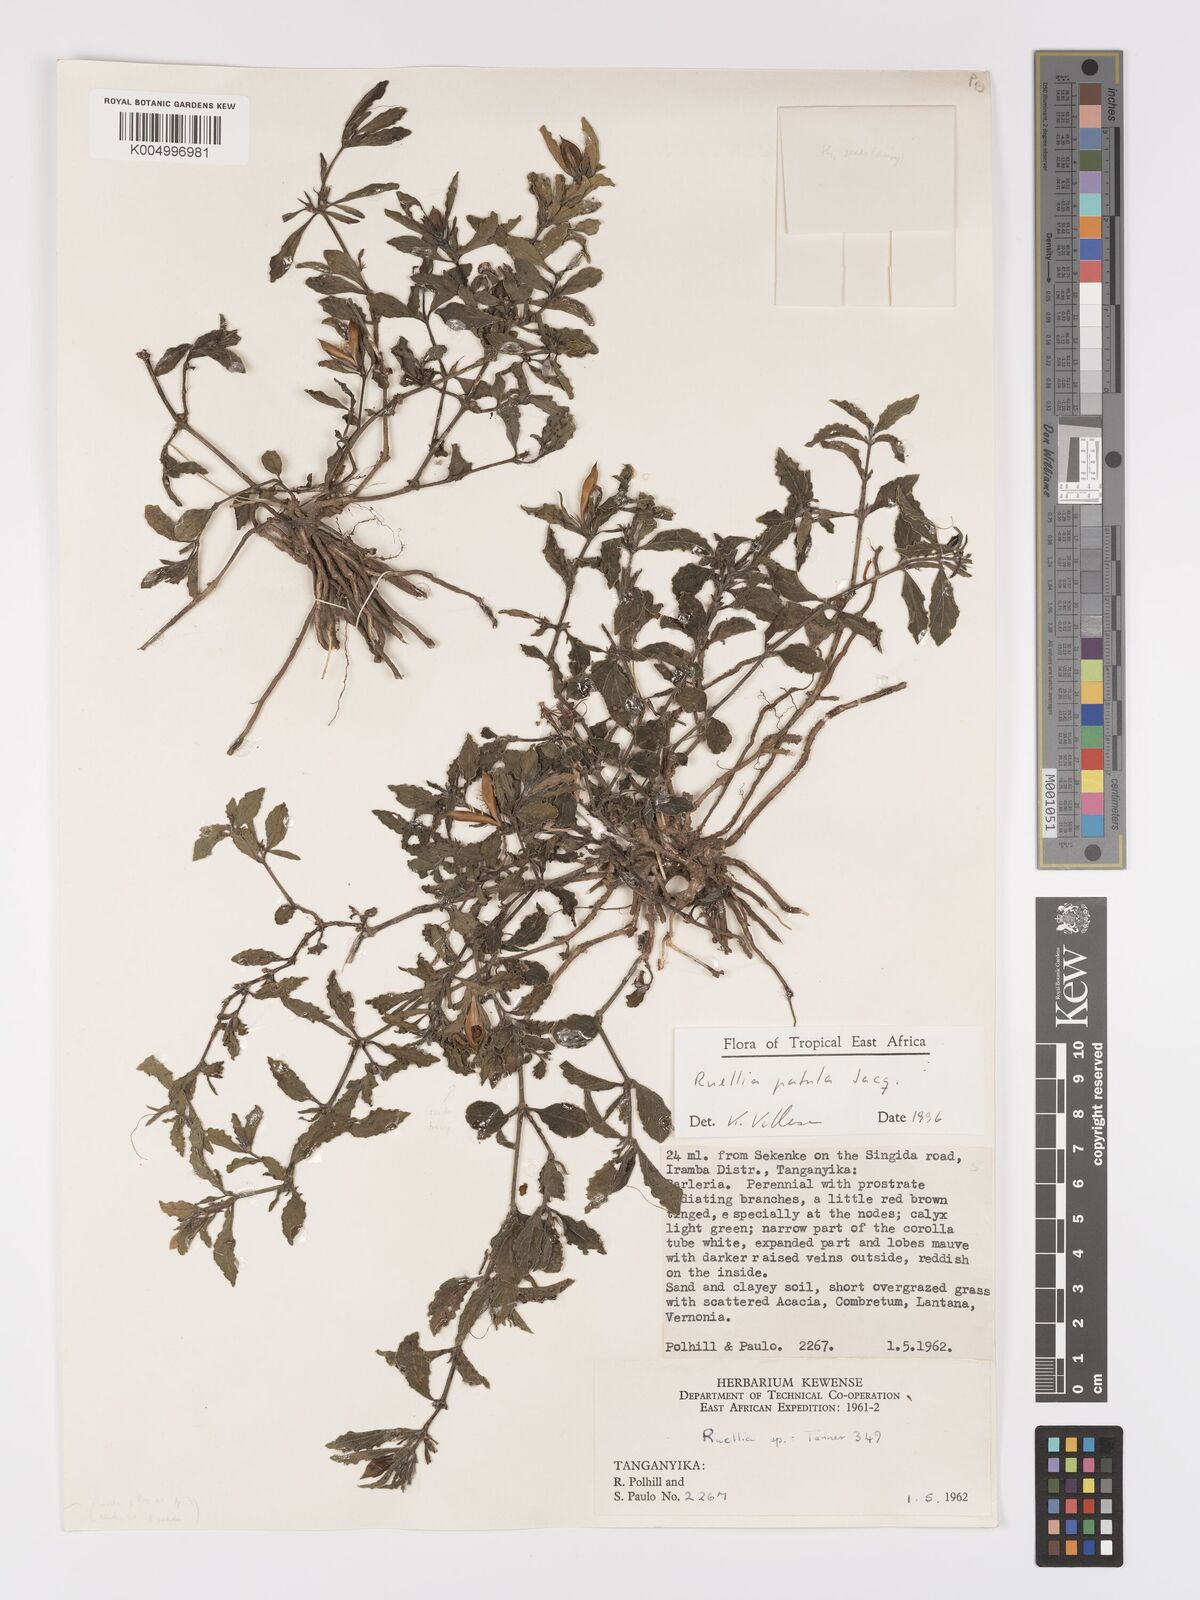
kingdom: Plantae
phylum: Tracheophyta
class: Magnoliopsida
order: Lamiales
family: Acanthaceae
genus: Ruellia
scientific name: Ruellia patula
